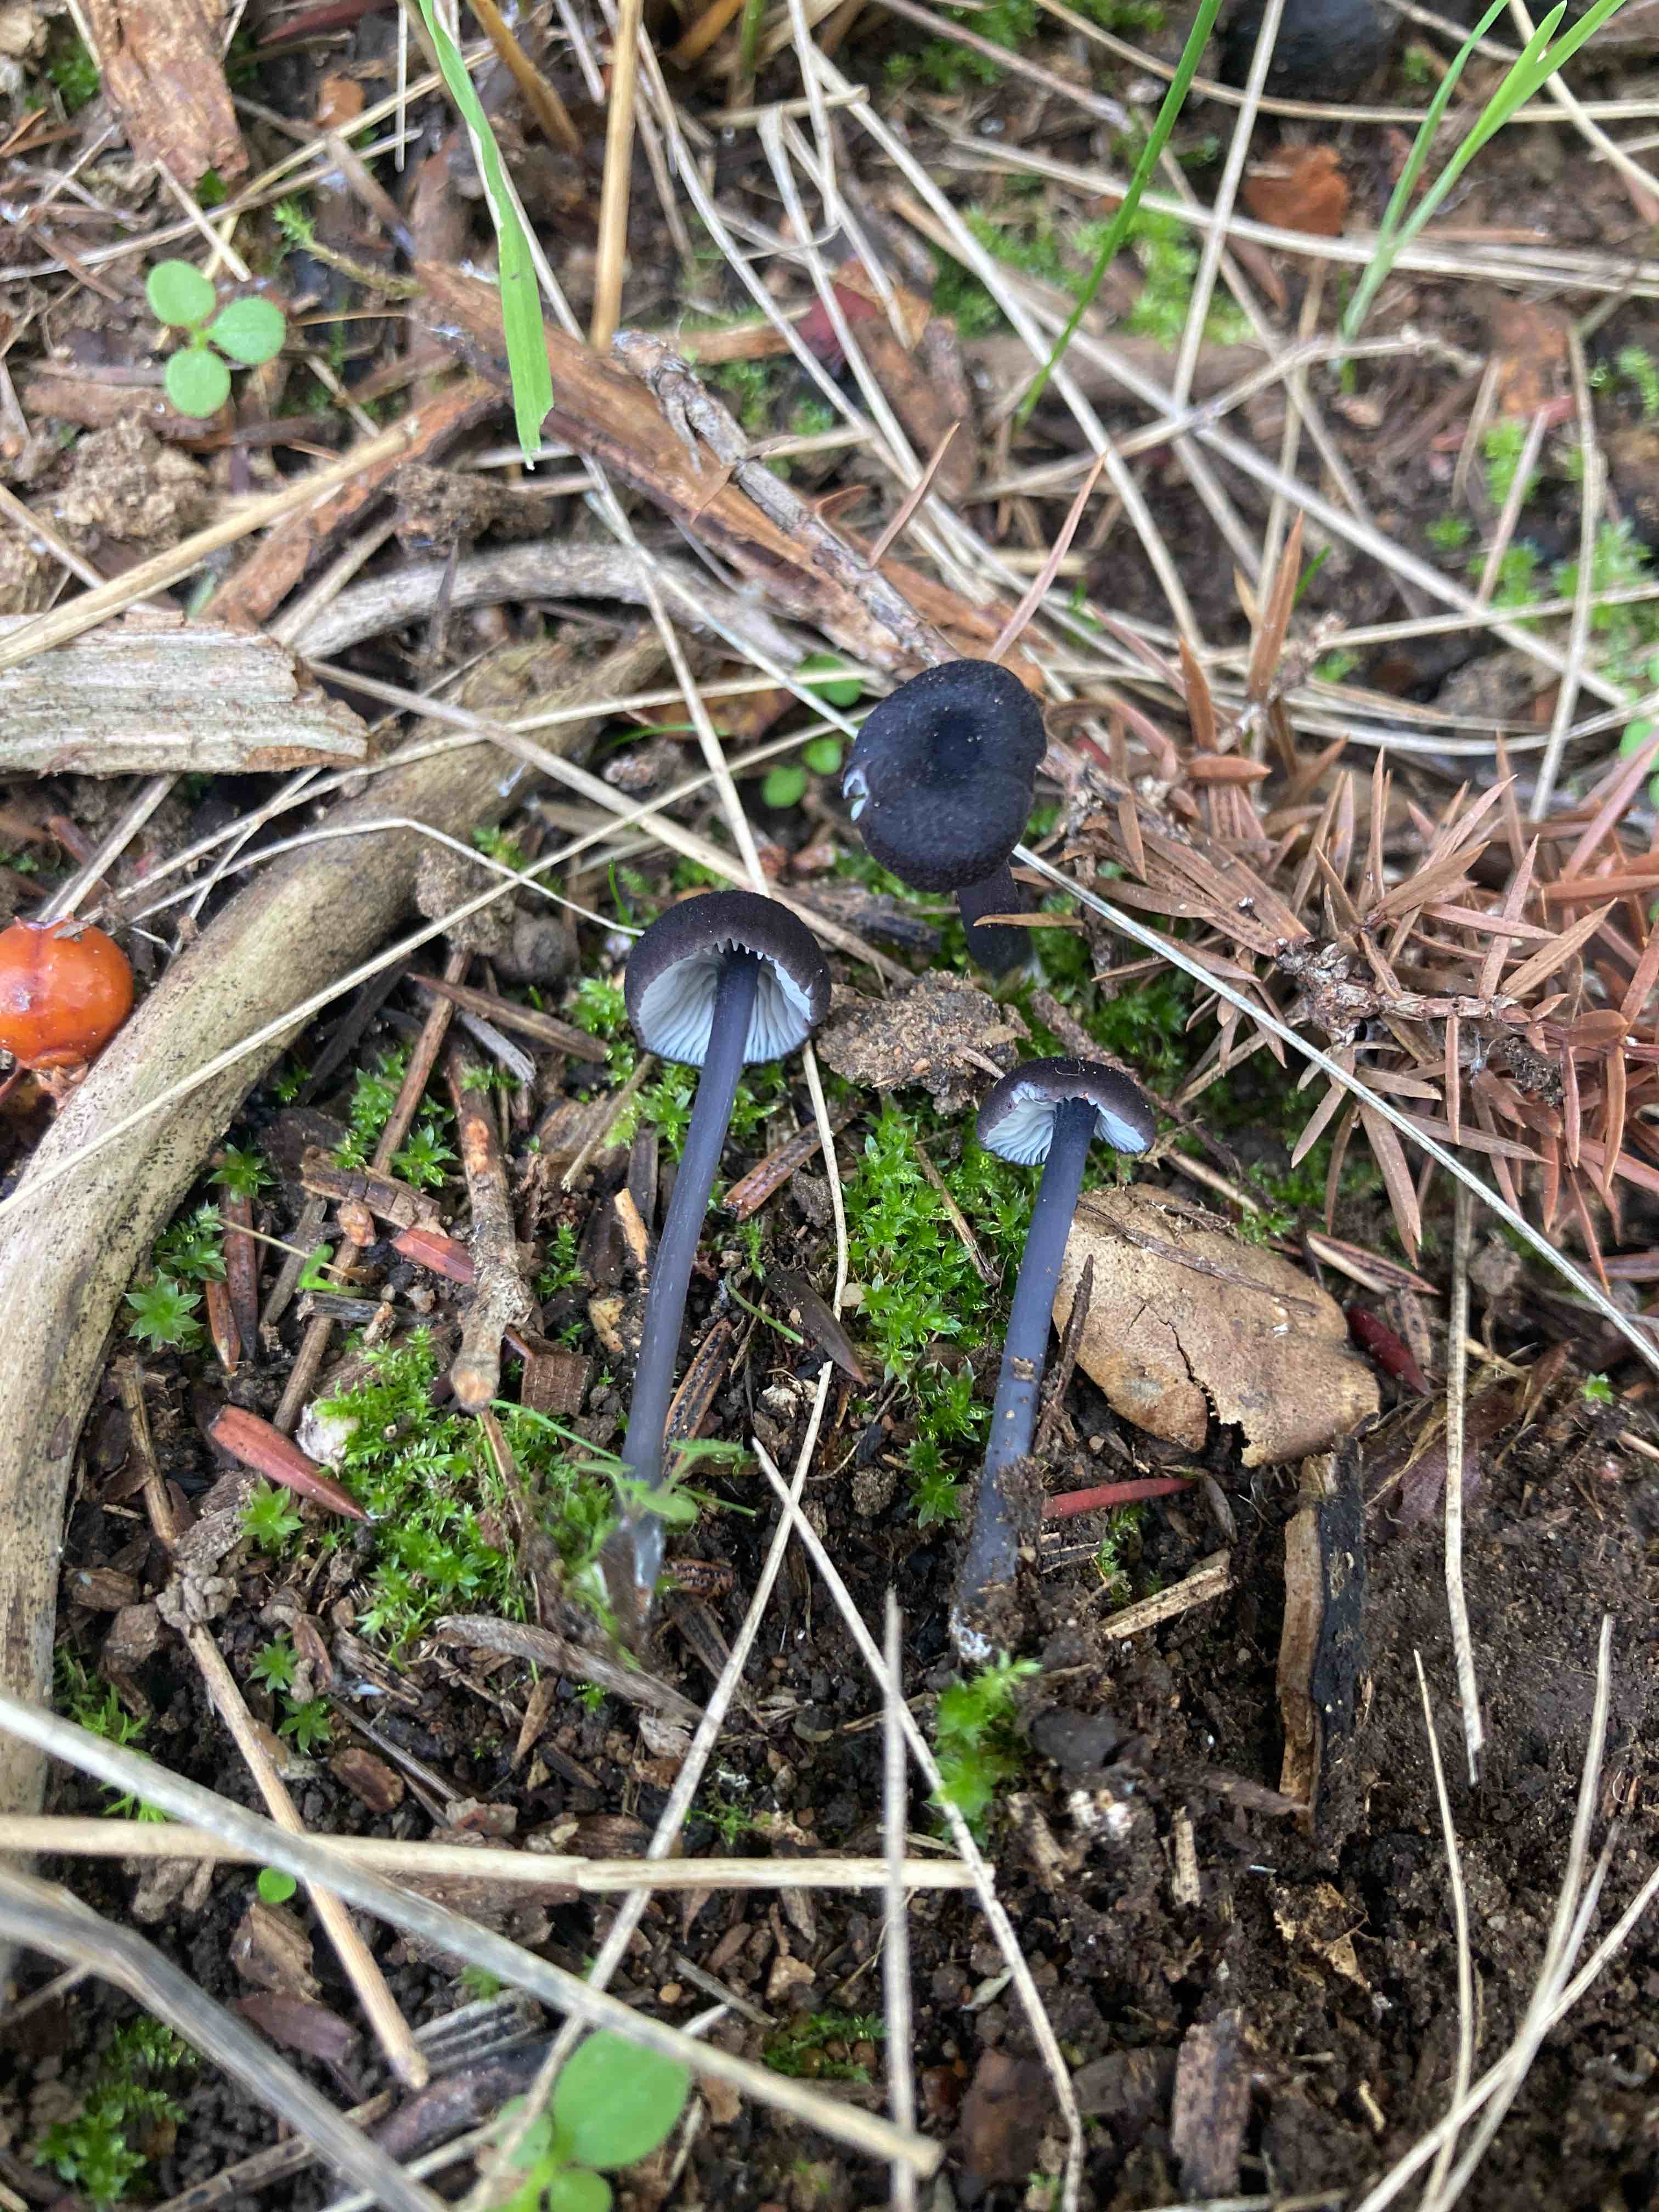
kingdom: Fungi
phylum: Basidiomycota
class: Agaricomycetes
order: Agaricales
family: Entolomataceae
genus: Entoloma
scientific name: Entoloma
